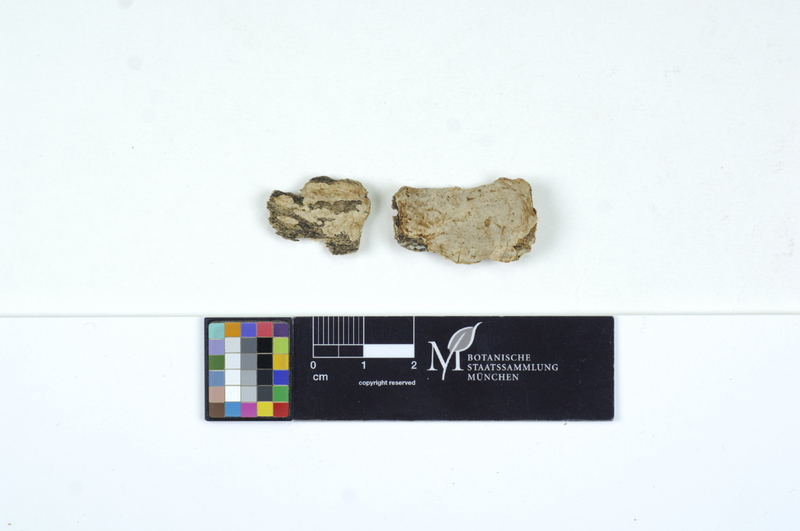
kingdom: Plantae
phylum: Tracheophyta
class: Magnoliopsida
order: Fagales
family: Fagaceae
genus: Fagus
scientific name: Fagus sylvatica
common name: Beech
